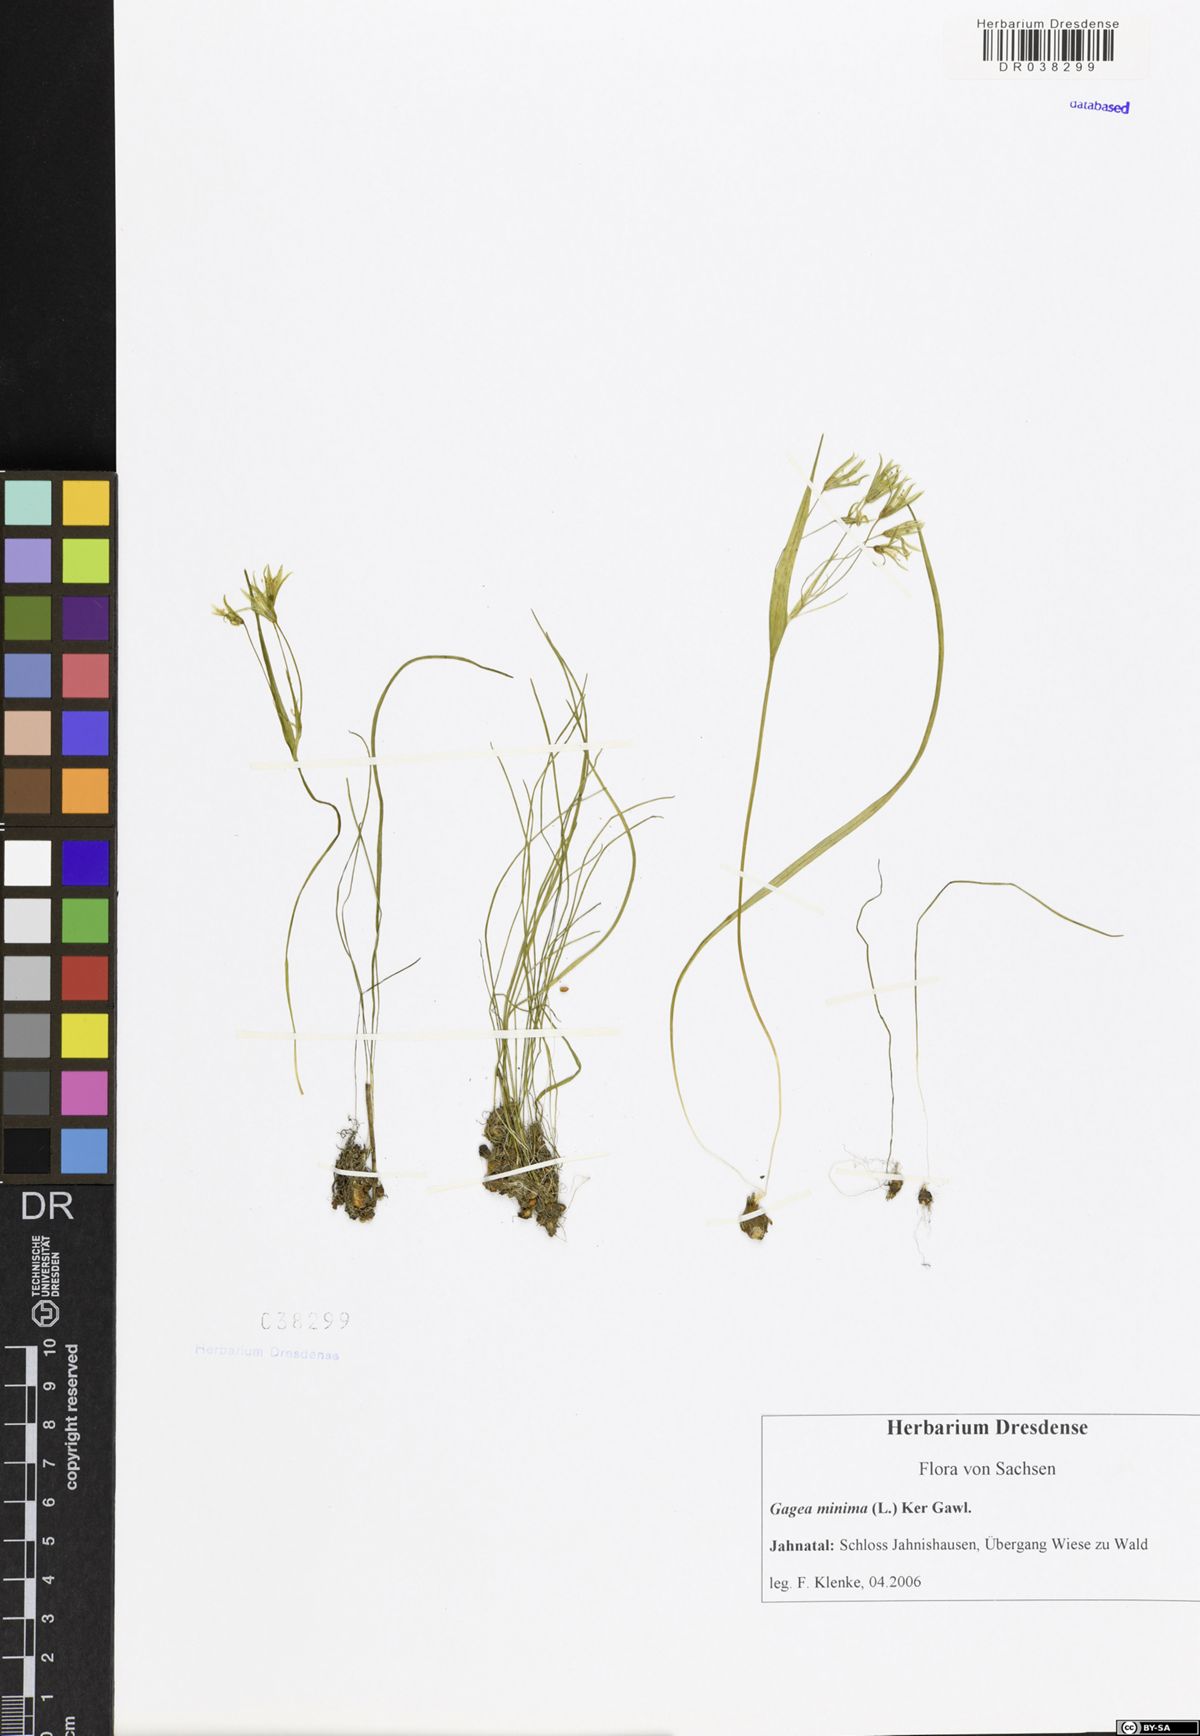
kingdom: Plantae
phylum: Tracheophyta
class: Liliopsida
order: Liliales
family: Liliaceae
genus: Gagea
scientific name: Gagea minima
